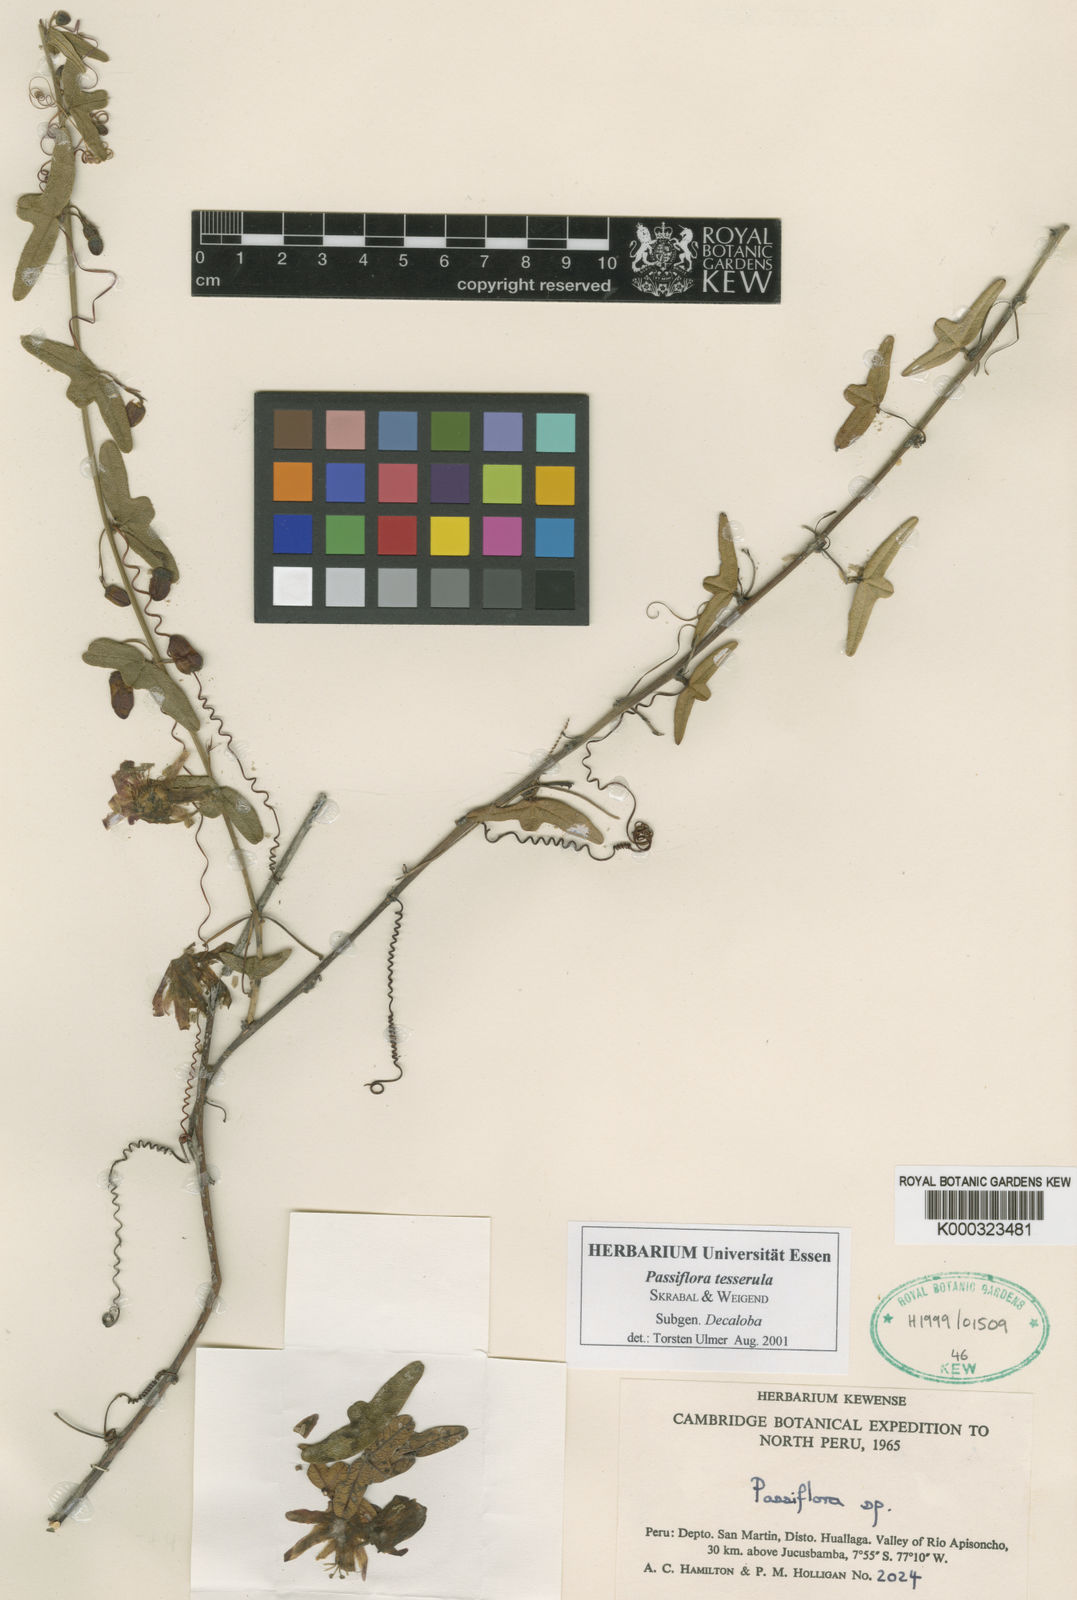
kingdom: Plantae
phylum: Tracheophyta
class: Magnoliopsida
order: Malpighiales
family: Passifloraceae
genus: Passiflora
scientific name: Passiflora tesserula
